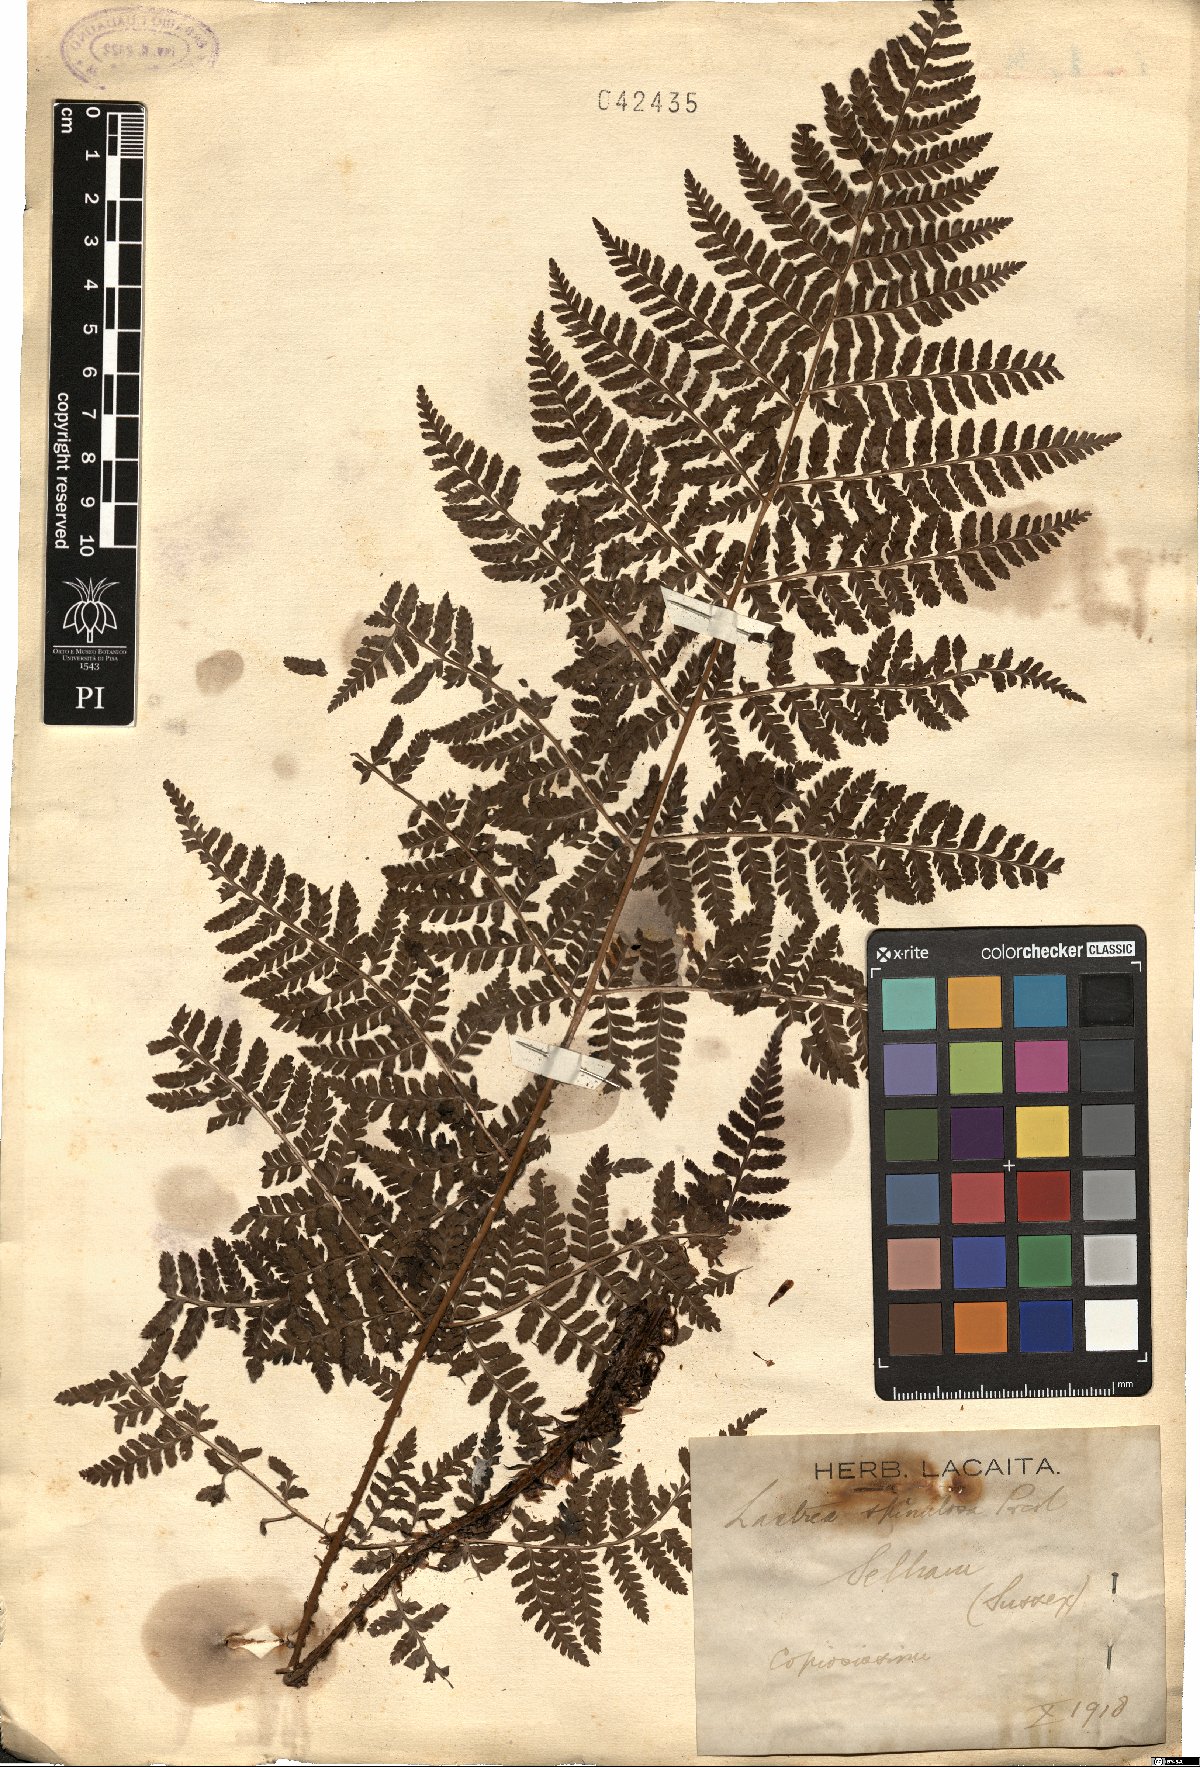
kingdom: Plantae
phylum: Tracheophyta
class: Polypodiopsida
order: Polypodiales
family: Dryopteridaceae
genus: Dryopteris
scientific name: Dryopteris carthusiana
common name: Narrow buckler-fern
